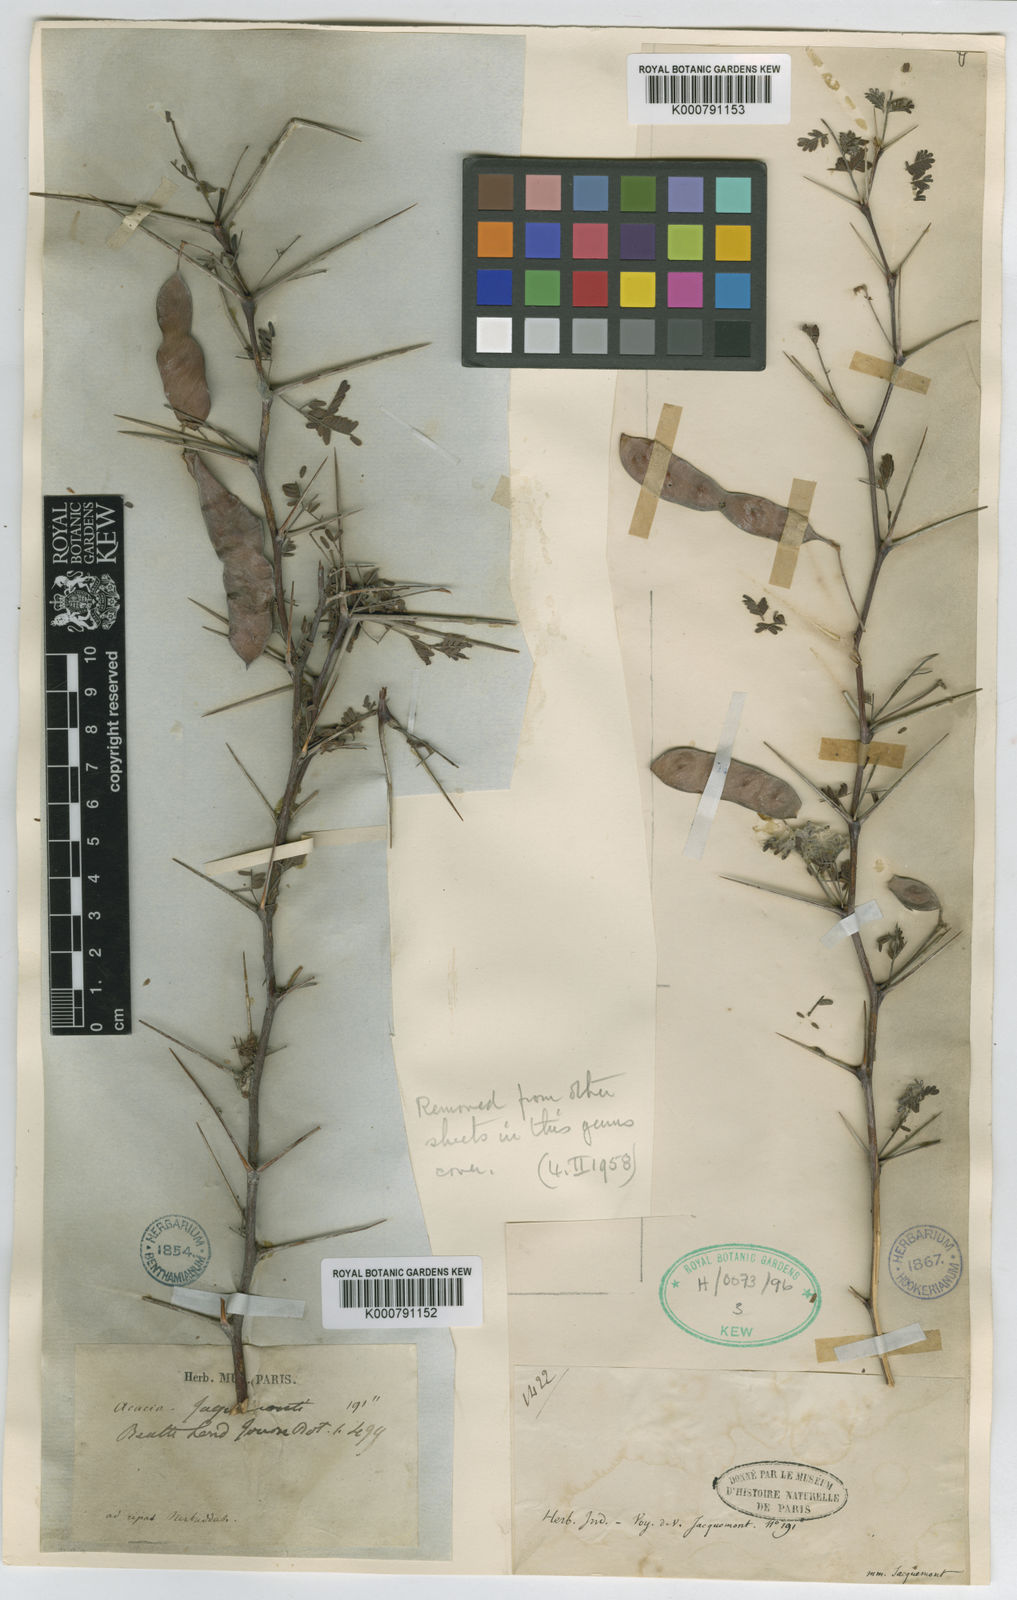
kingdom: Plantae
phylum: Tracheophyta
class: Magnoliopsida
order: Fabales
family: Fabaceae
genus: Vachellia
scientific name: Vachellia jacquemontii
